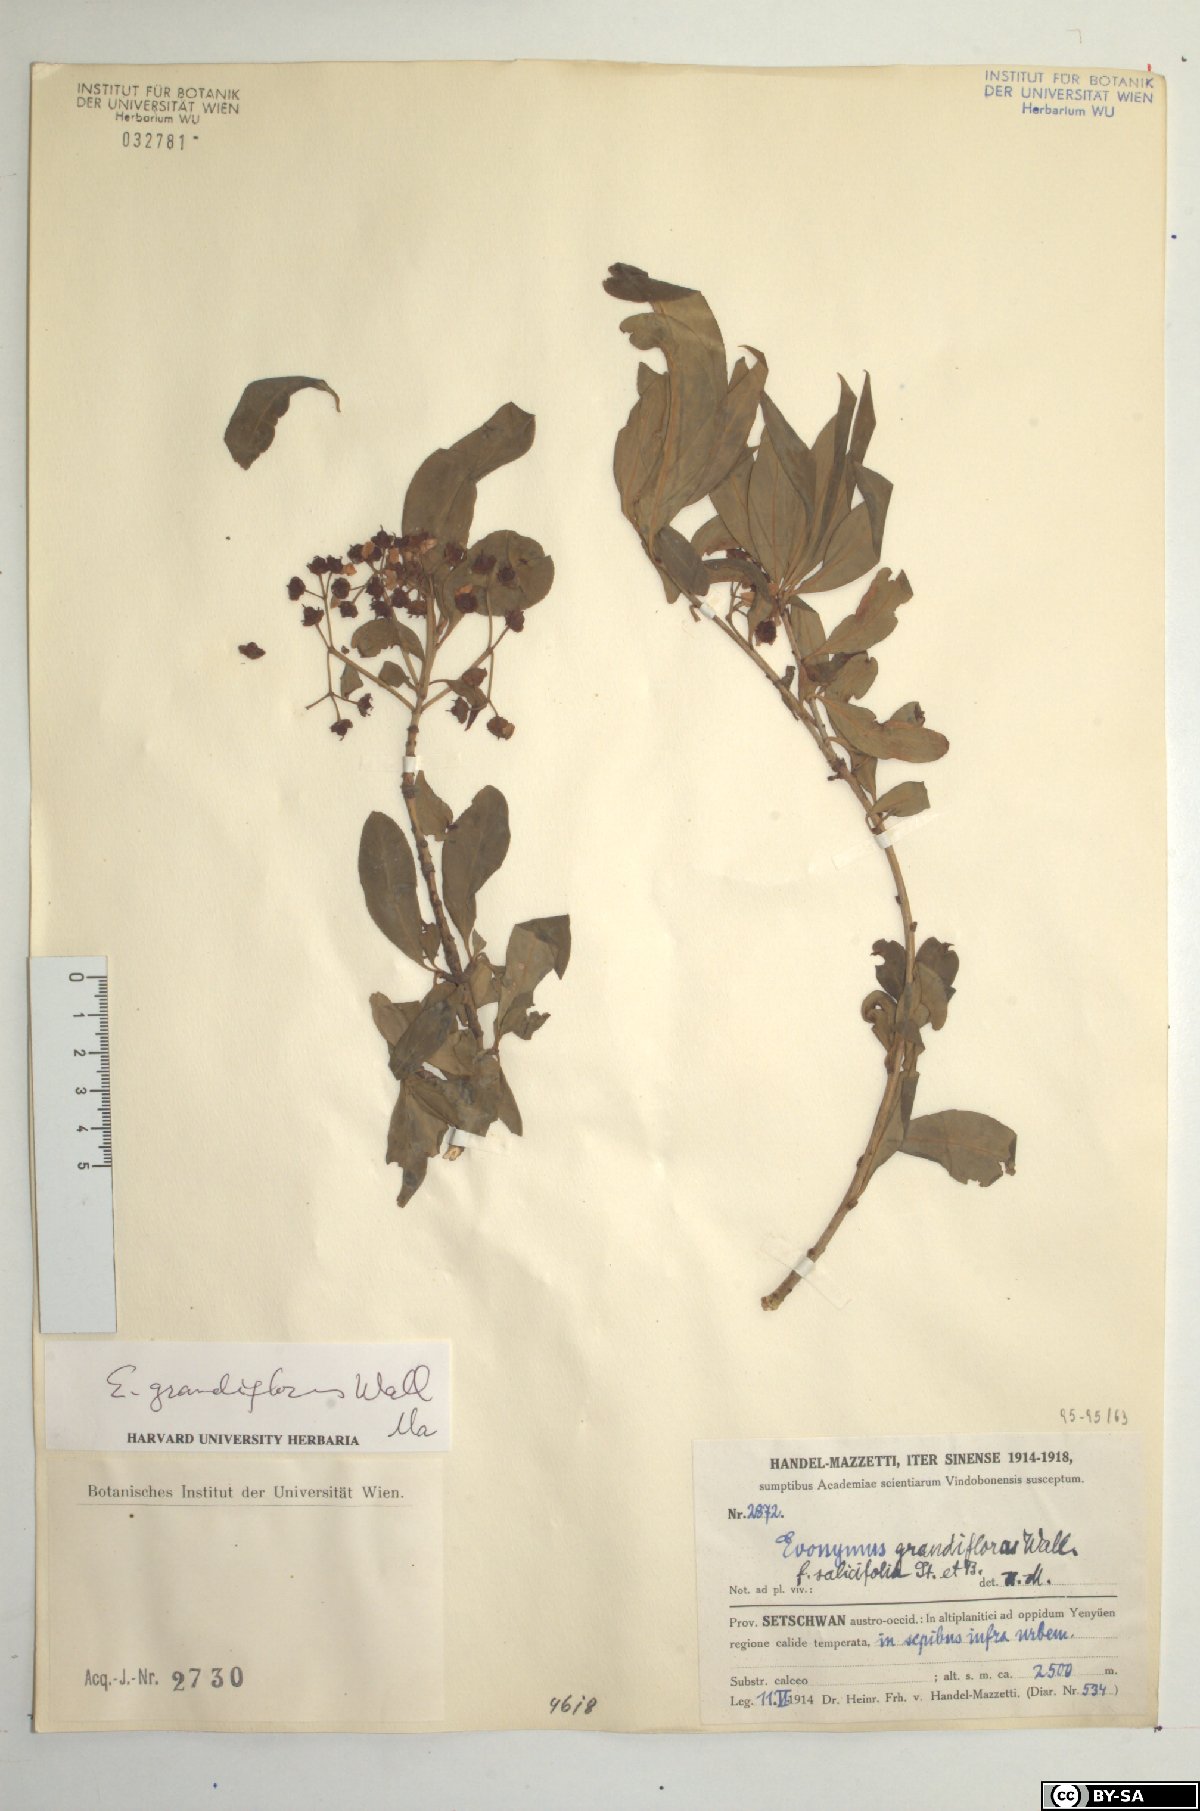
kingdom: Plantae
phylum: Tracheophyta
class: Magnoliopsida
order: Celastrales
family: Celastraceae
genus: Euonymus
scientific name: Euonymus grandiflorus
